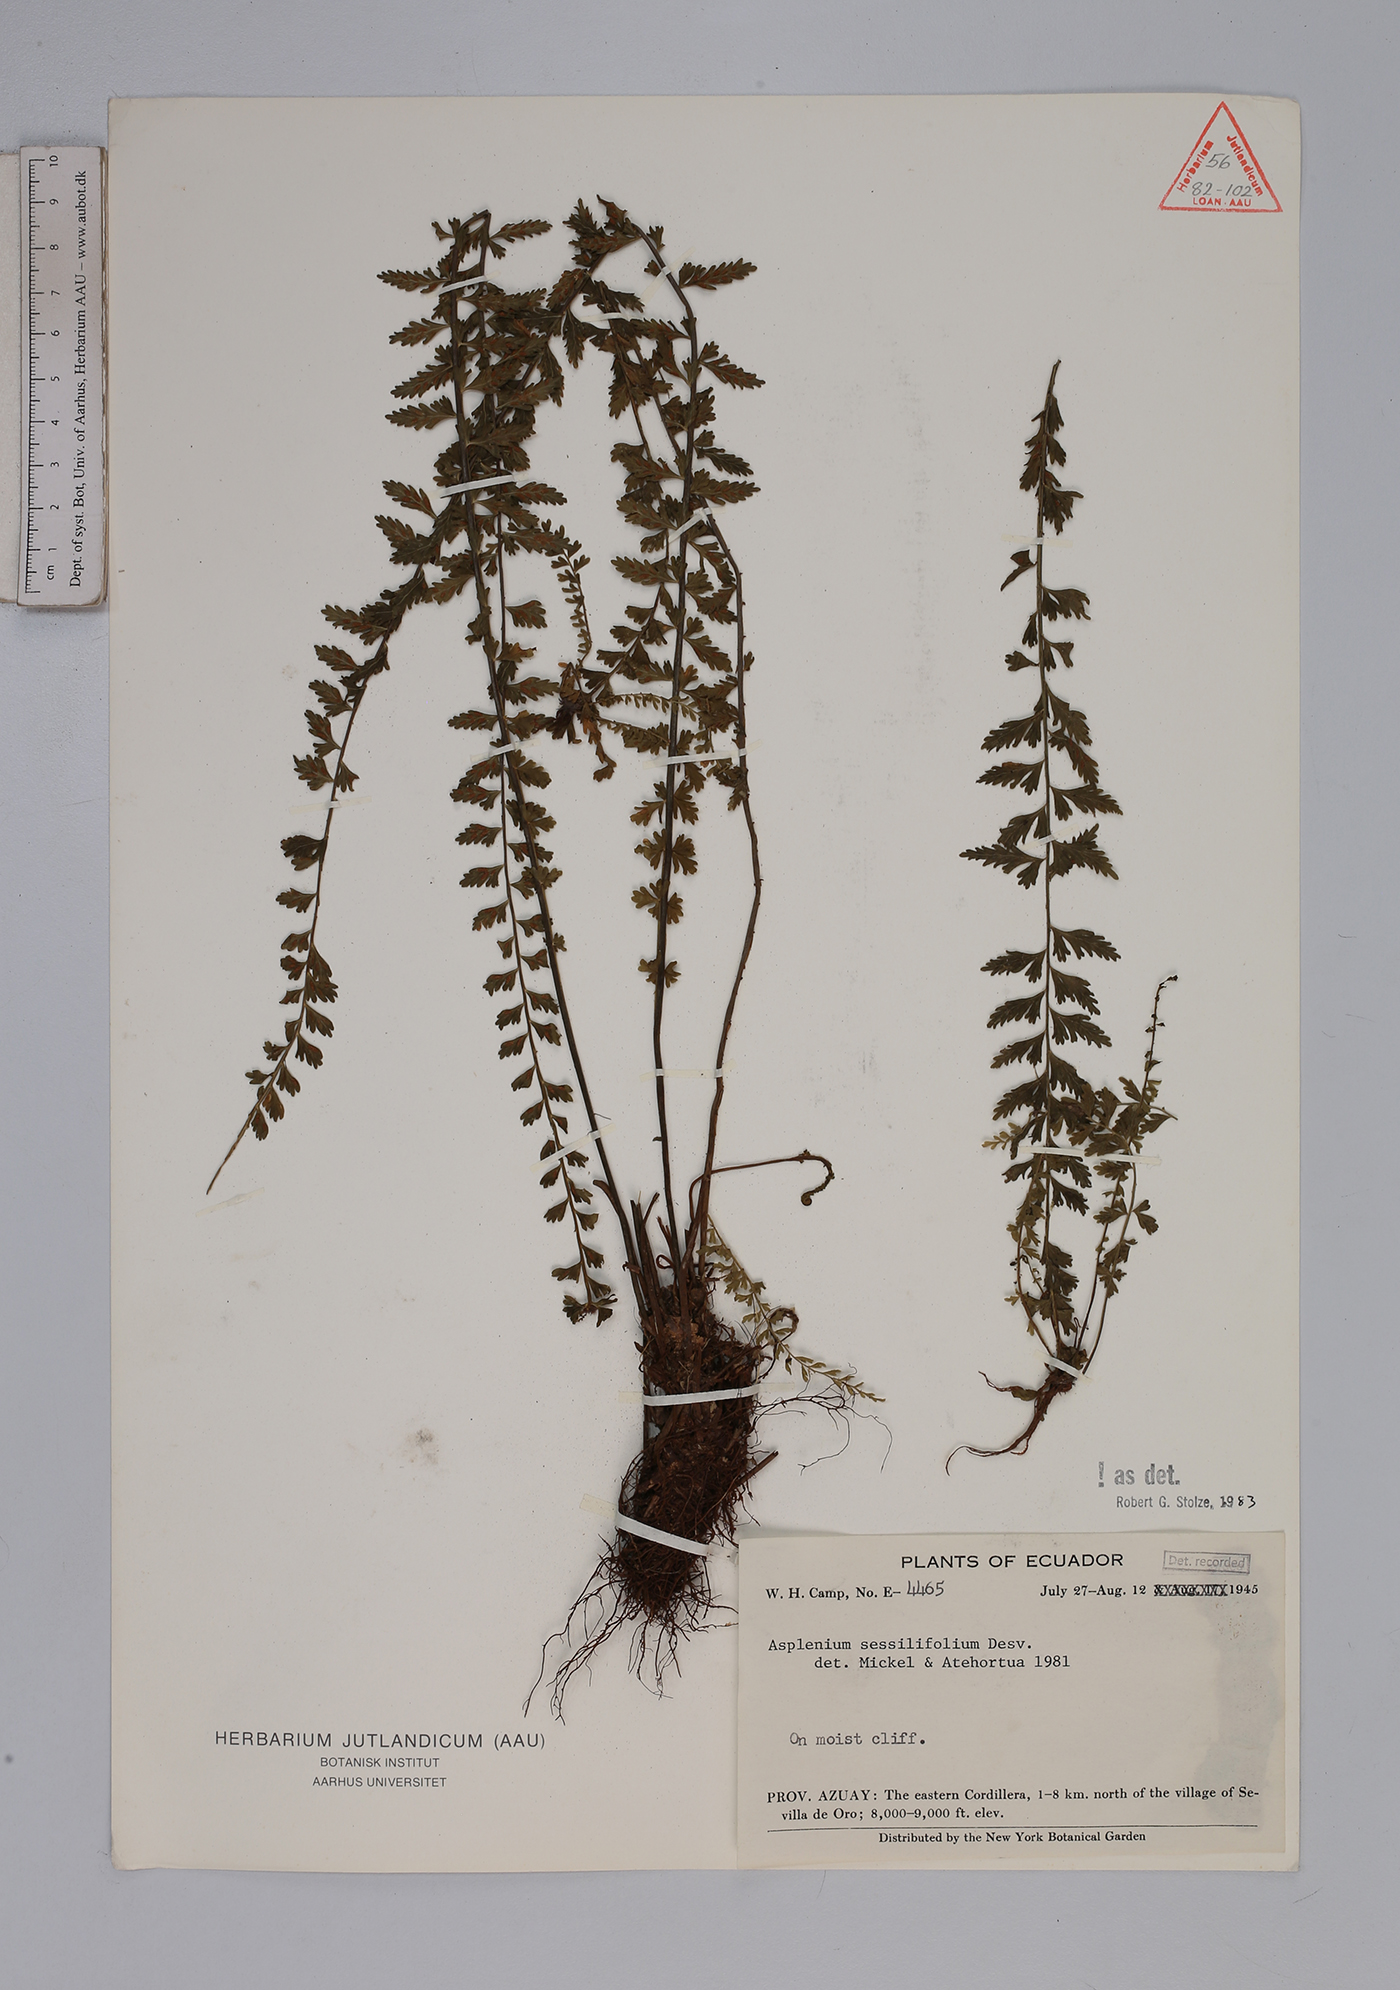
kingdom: Plantae
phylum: Tracheophyta
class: Polypodiopsida
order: Polypodiales
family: Aspleniaceae
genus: Asplenium
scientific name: Asplenium sessilifolium
